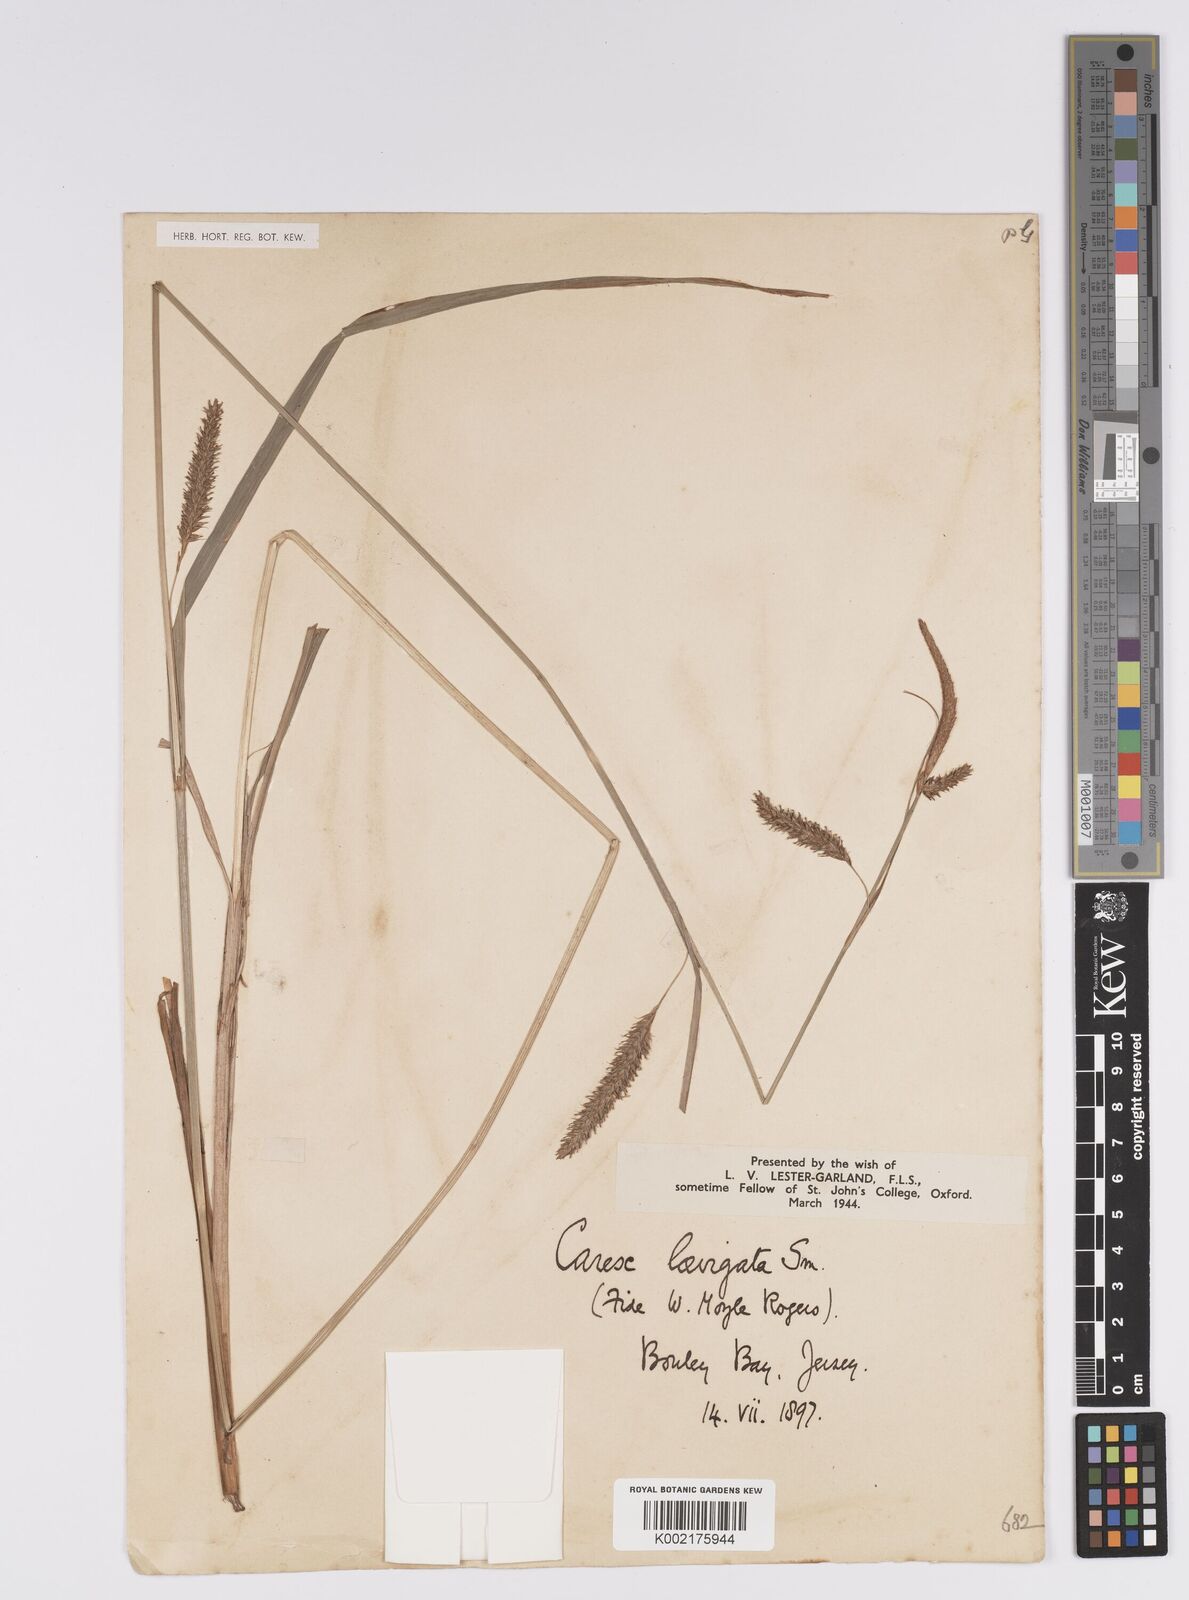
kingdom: Plantae
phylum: Tracheophyta
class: Liliopsida
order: Poales
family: Cyperaceae
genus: Carex
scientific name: Carex laevigata
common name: Smooth-stalked sedge
